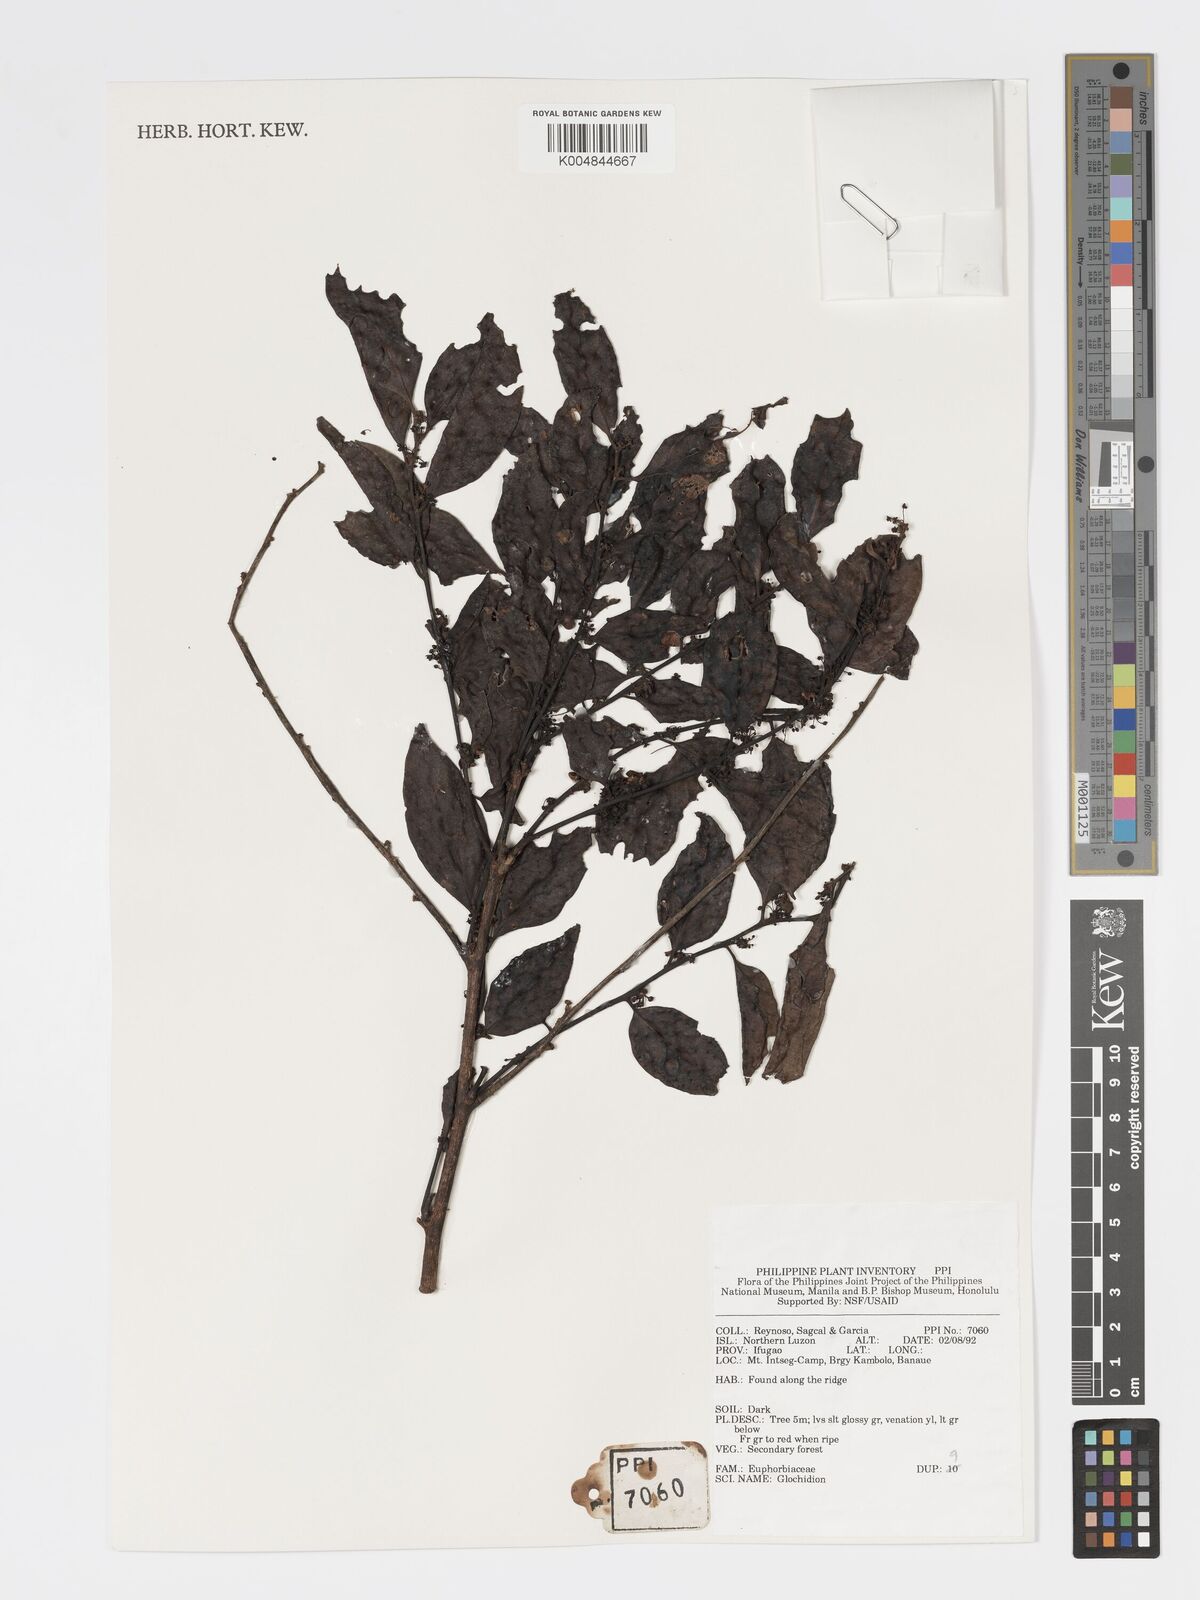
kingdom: Plantae
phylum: Tracheophyta
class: Magnoliopsida
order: Malpighiales
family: Phyllanthaceae
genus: Glochidion
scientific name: Glochidion
